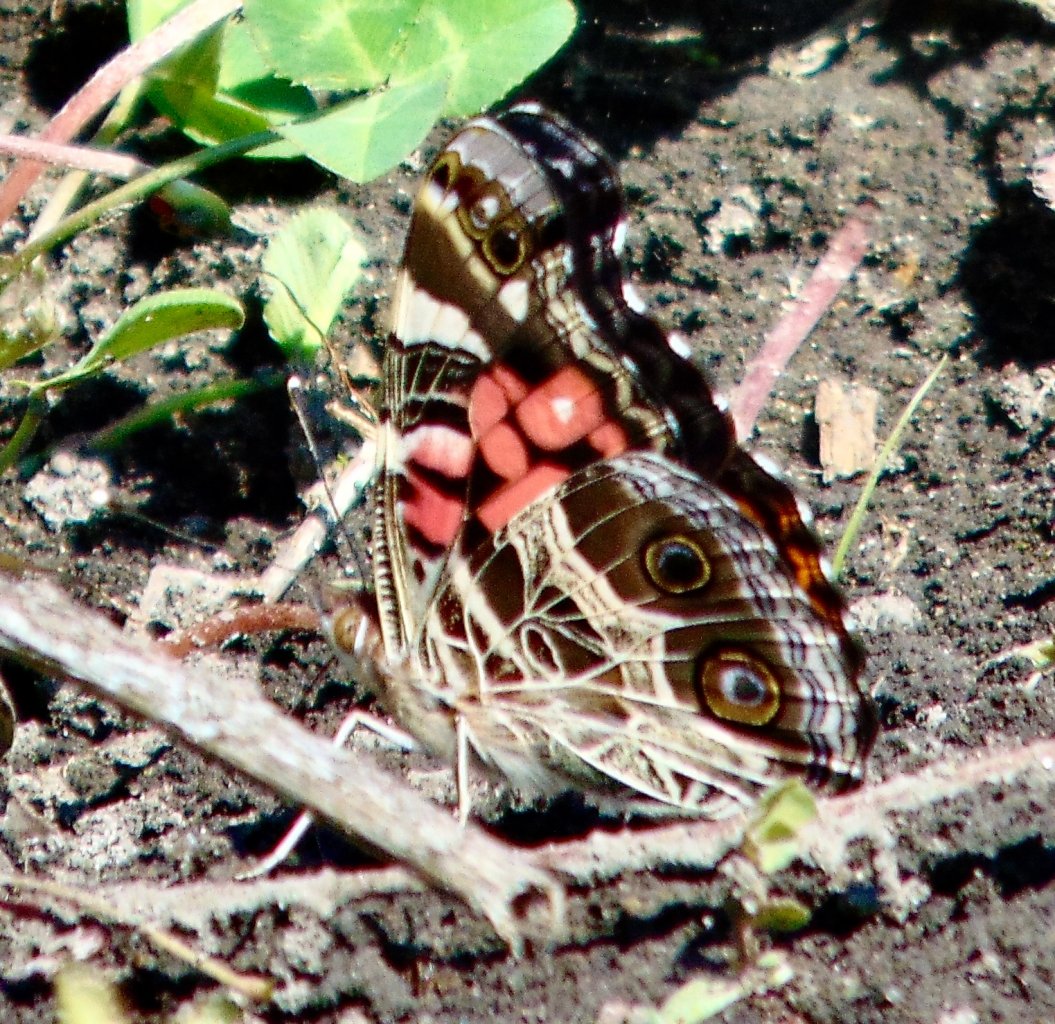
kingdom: Animalia
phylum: Arthropoda
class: Insecta
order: Lepidoptera
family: Nymphalidae
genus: Vanessa
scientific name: Vanessa virginiensis
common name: American Lady
